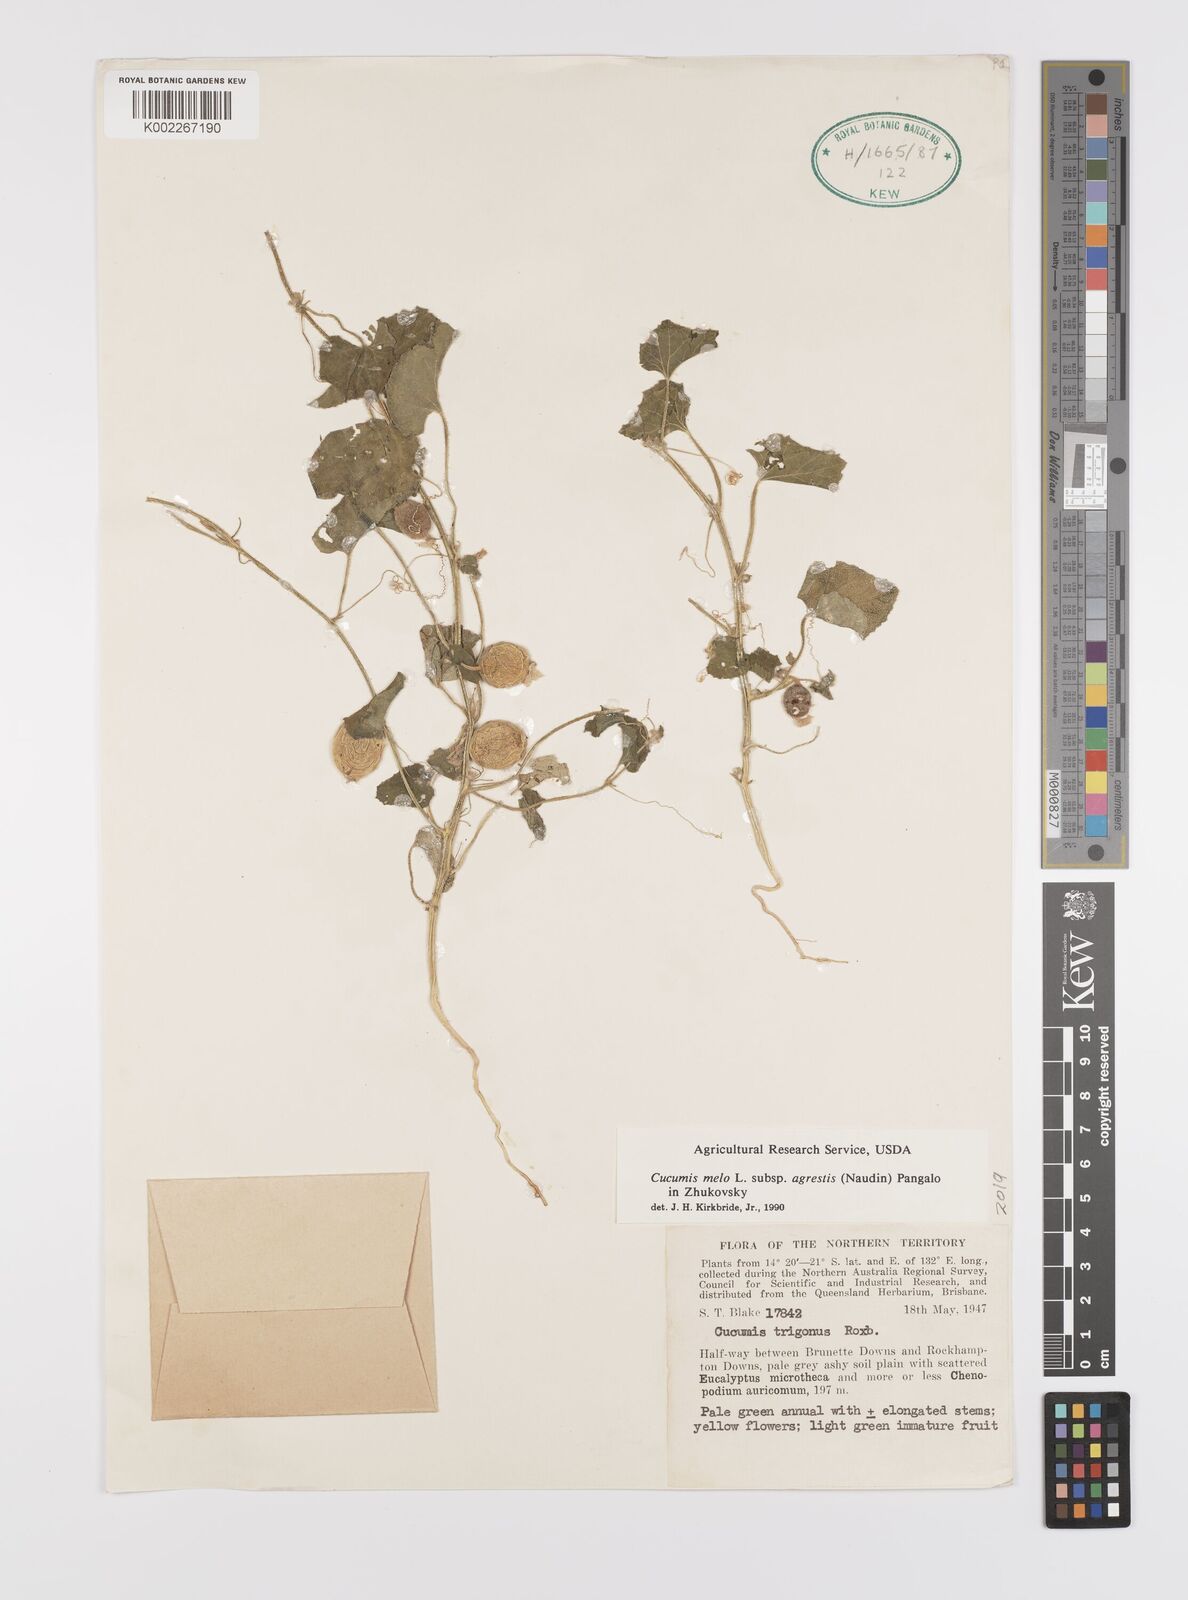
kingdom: Plantae
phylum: Tracheophyta
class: Magnoliopsida
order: Cucurbitales
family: Cucurbitaceae
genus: Cucumis
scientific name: Cucumis melo
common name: Melon
